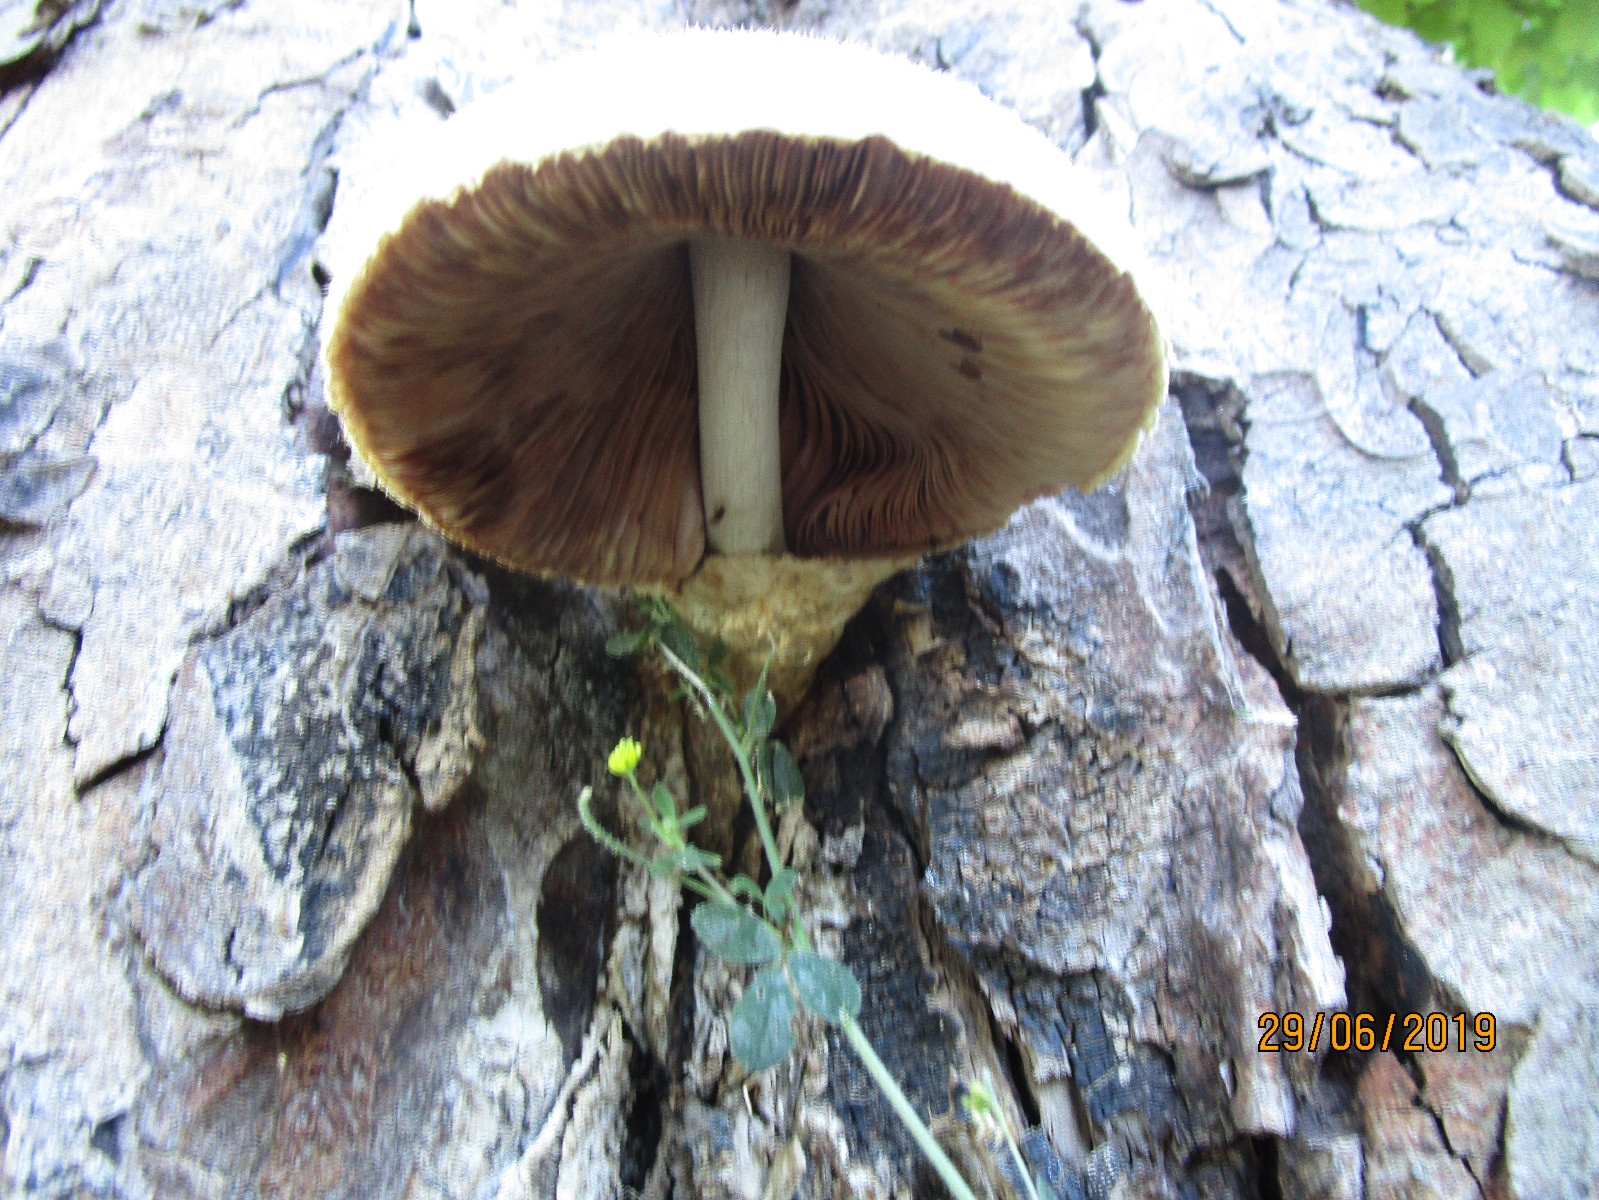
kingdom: Fungi
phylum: Basidiomycota
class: Agaricomycetes
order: Agaricales
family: Pluteaceae
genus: Volvariella
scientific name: Volvariella bombycina
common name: silkehåret posesvamp
